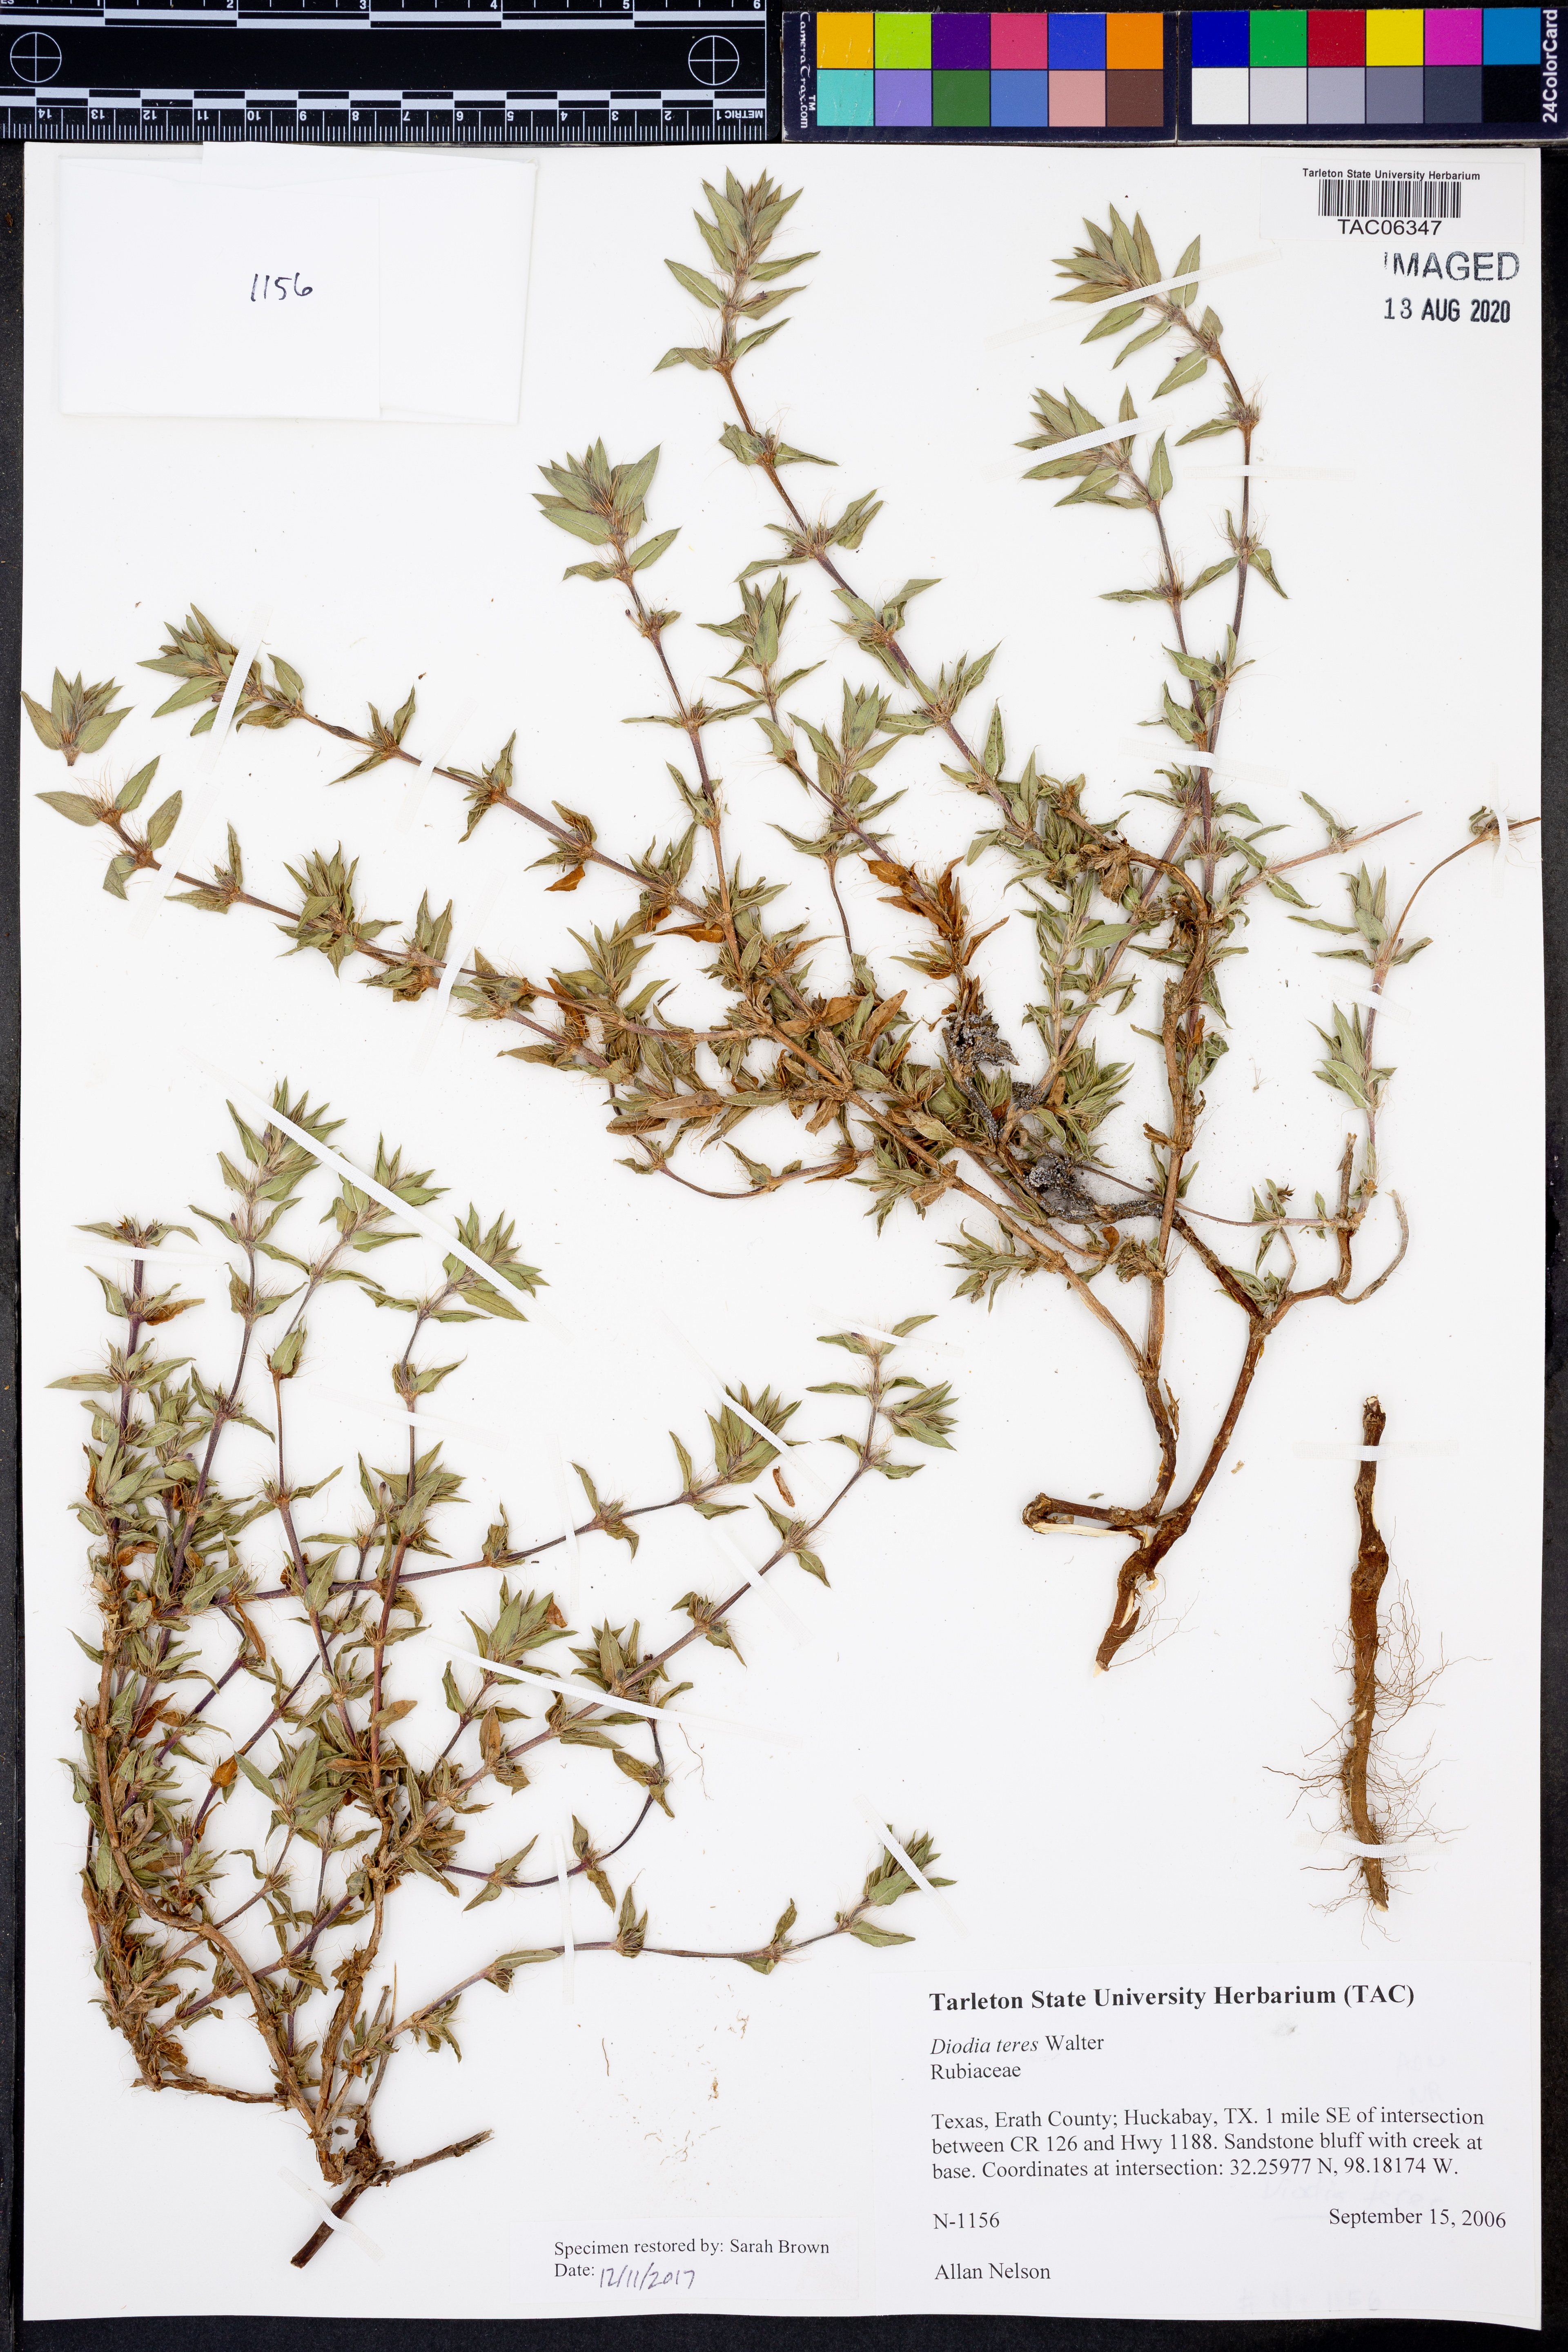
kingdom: Plantae
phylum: Tracheophyta
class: Magnoliopsida
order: Gentianales
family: Rubiaceae
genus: Hexasepalum
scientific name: Hexasepalum teres
